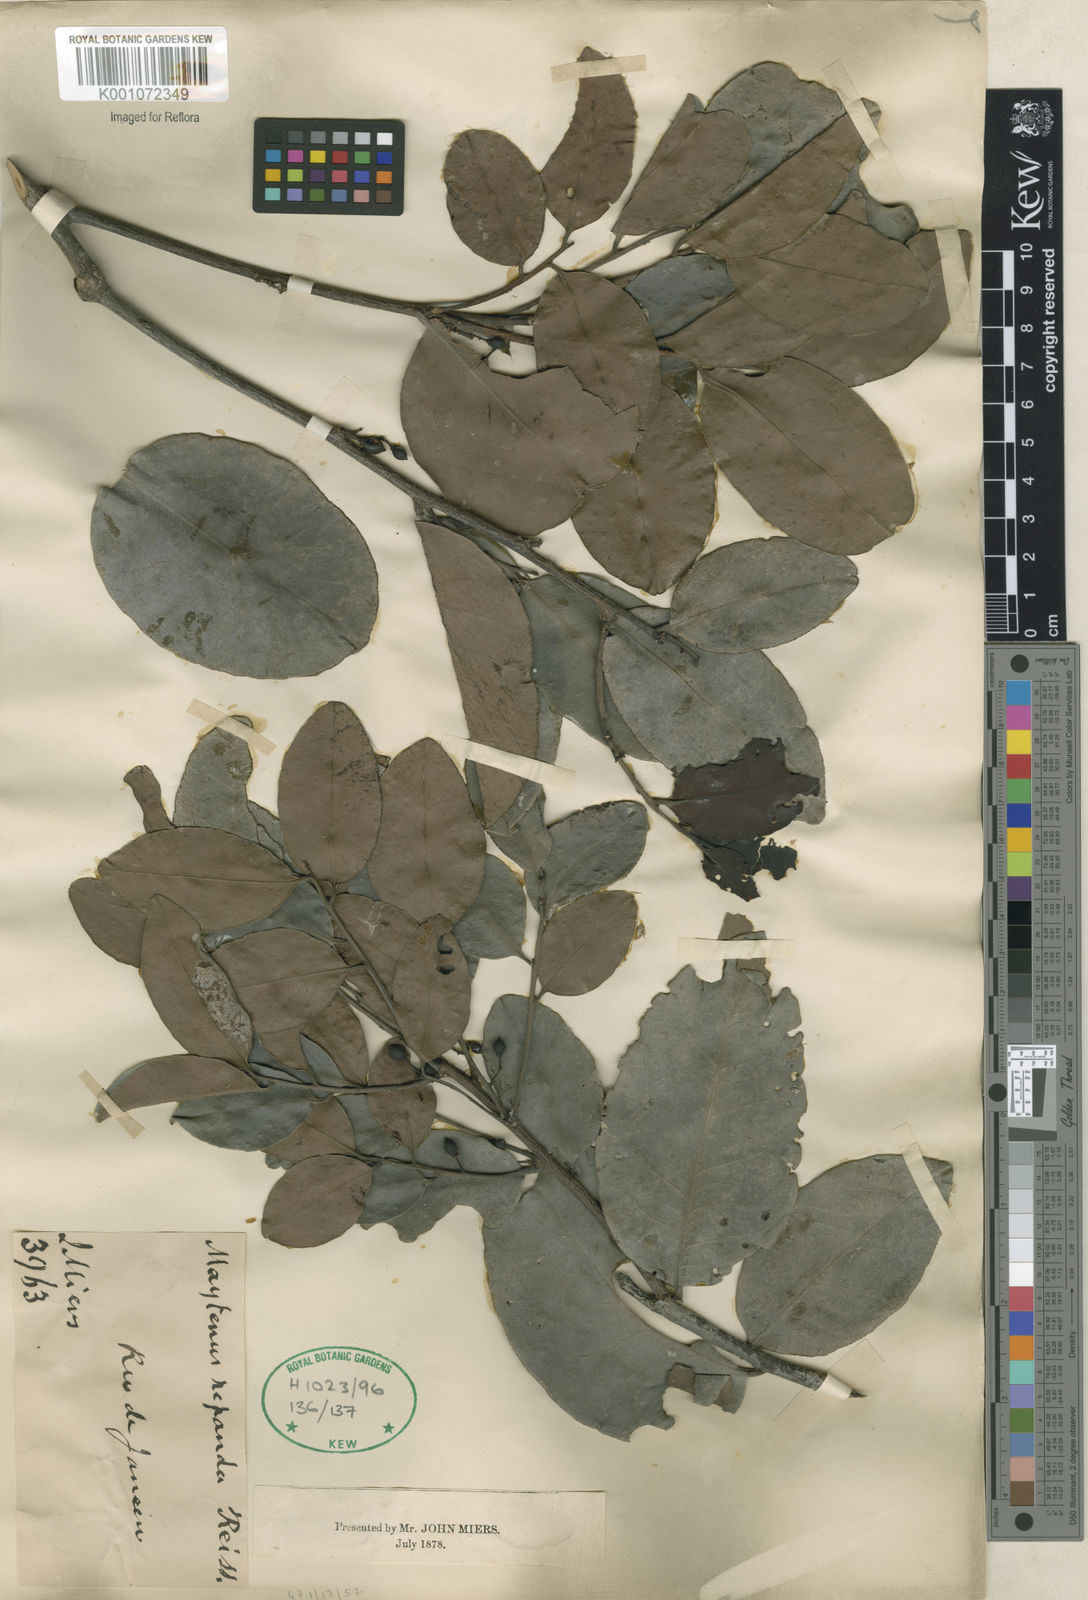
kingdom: Plantae
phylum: Tracheophyta
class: Magnoliopsida
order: Celastrales
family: Celastraceae
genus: Monteverdia
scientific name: Monteverdia myrsinoides
